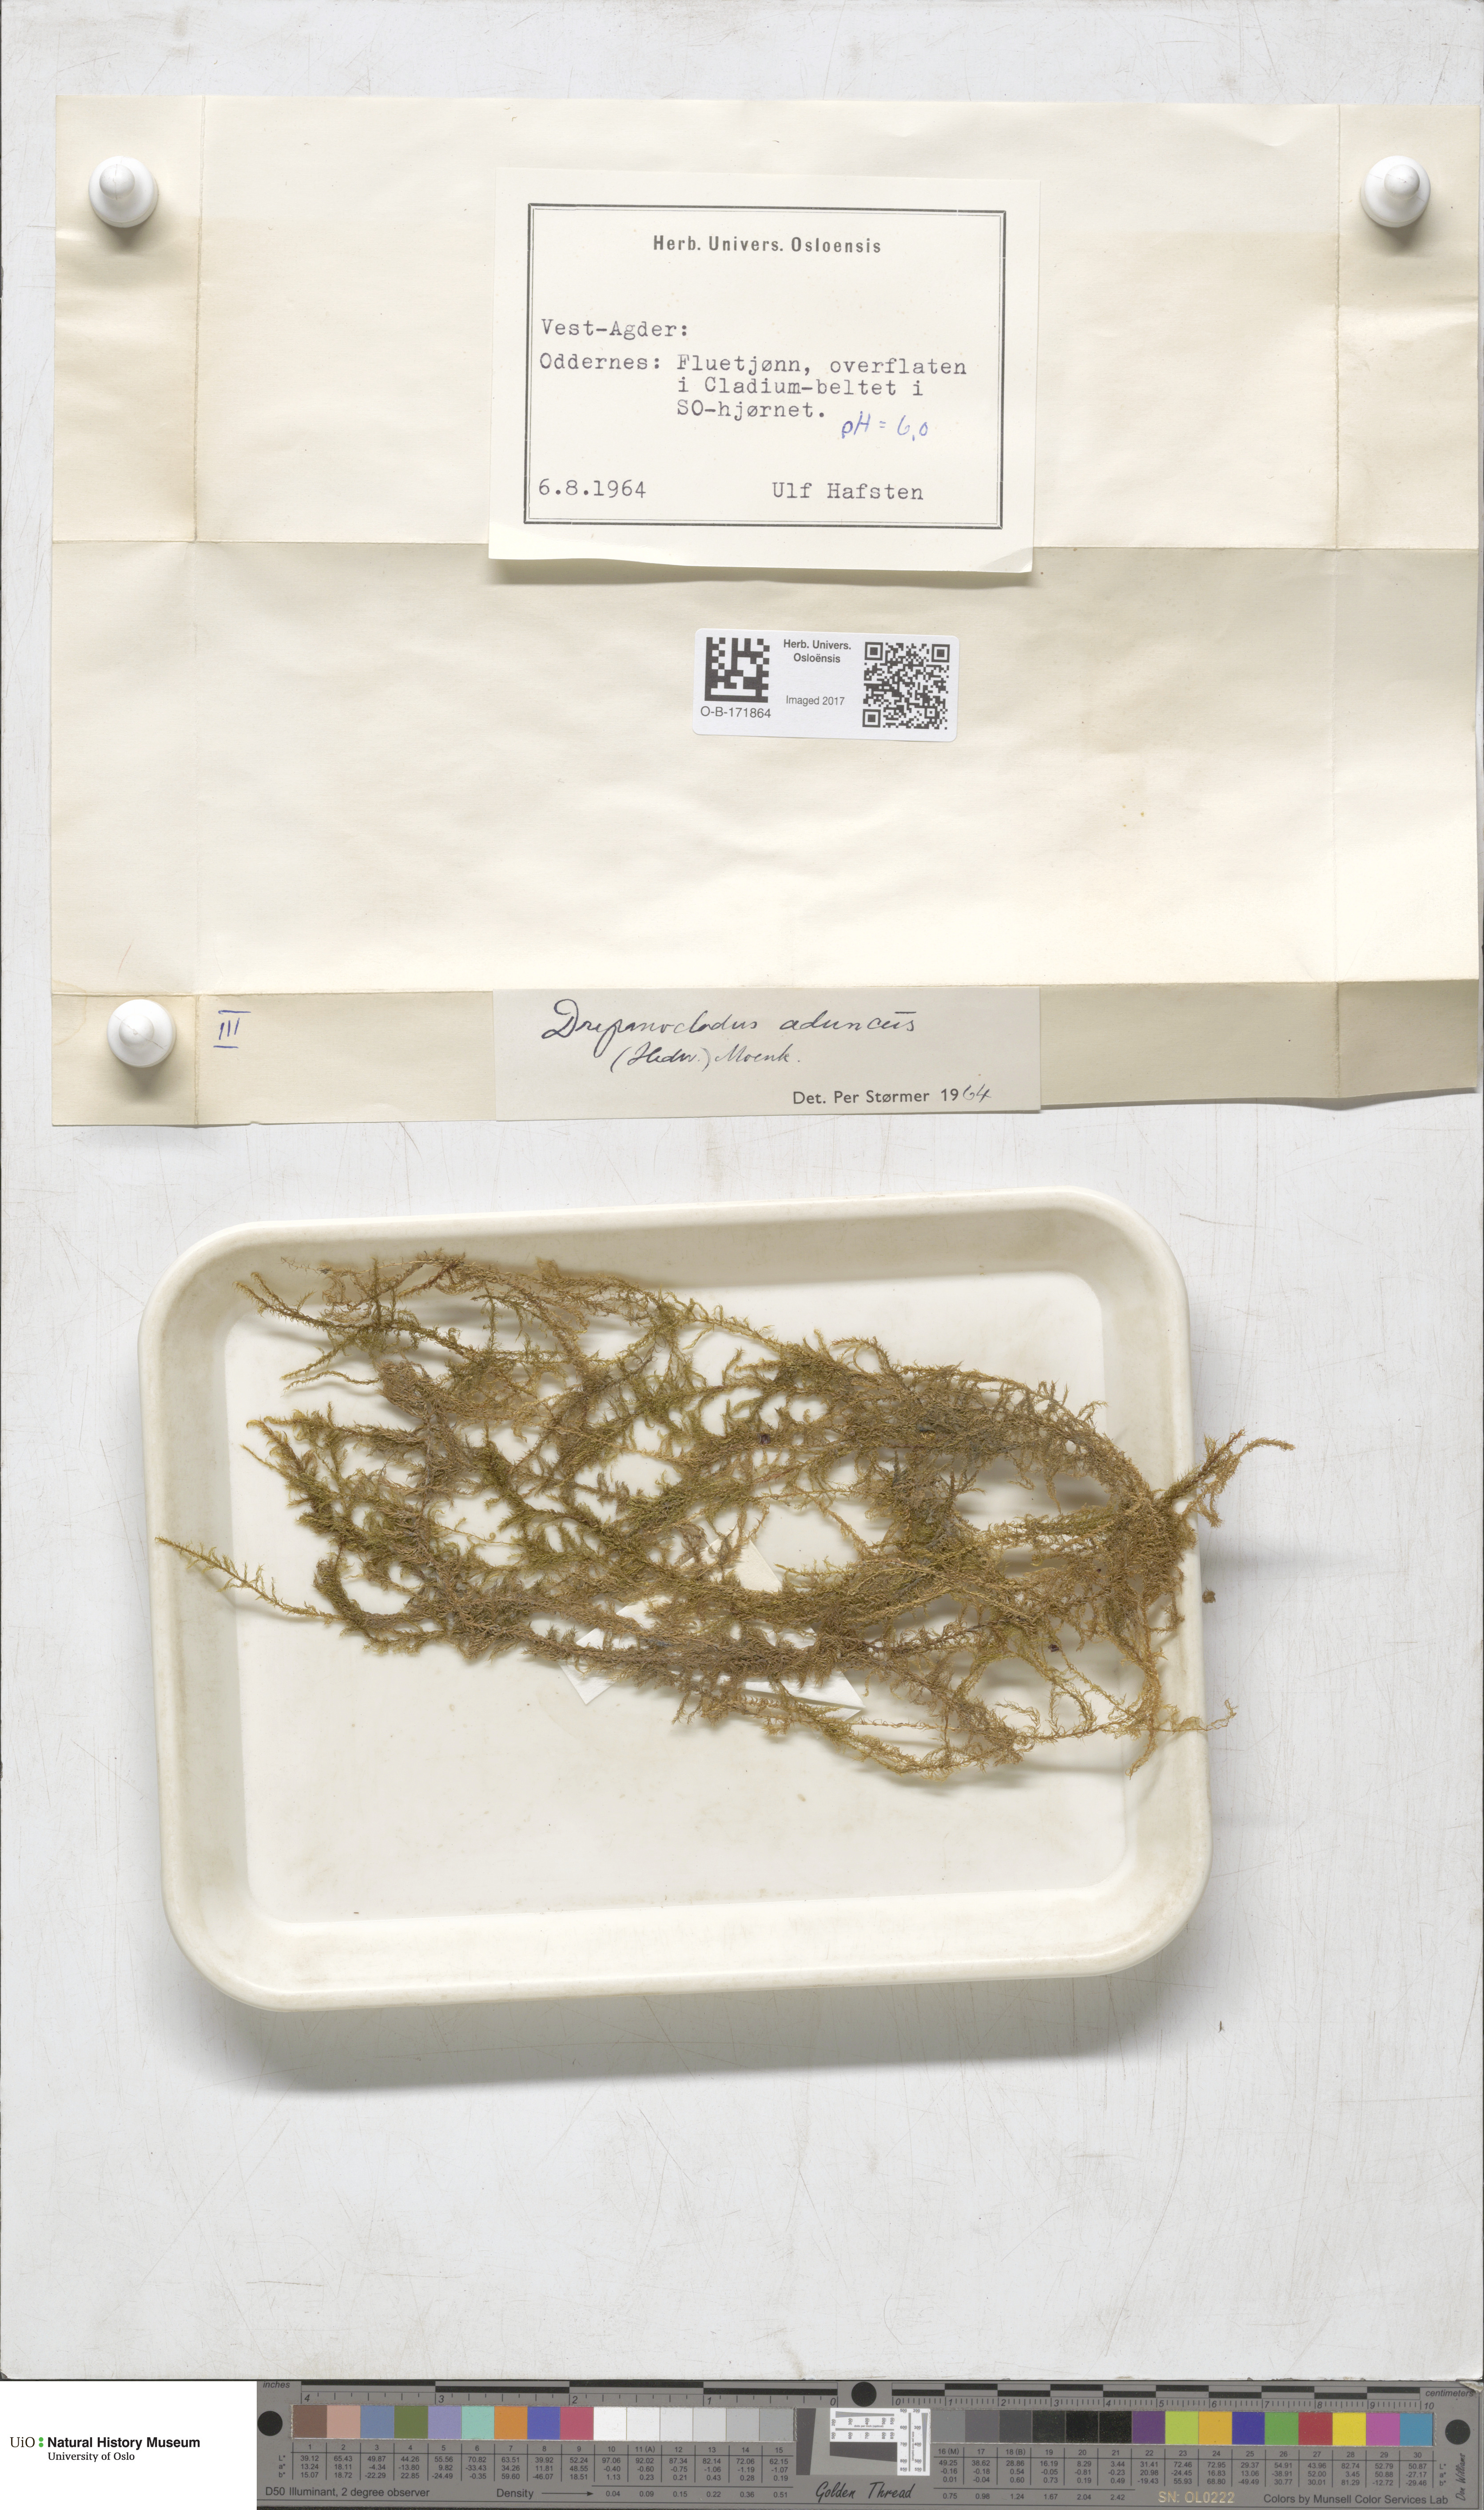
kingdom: Plantae
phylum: Bryophyta
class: Bryopsida
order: Hypnales
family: Amblystegiaceae
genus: Drepanocladus
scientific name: Drepanocladus aduncus
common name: Knieff's hook moss
